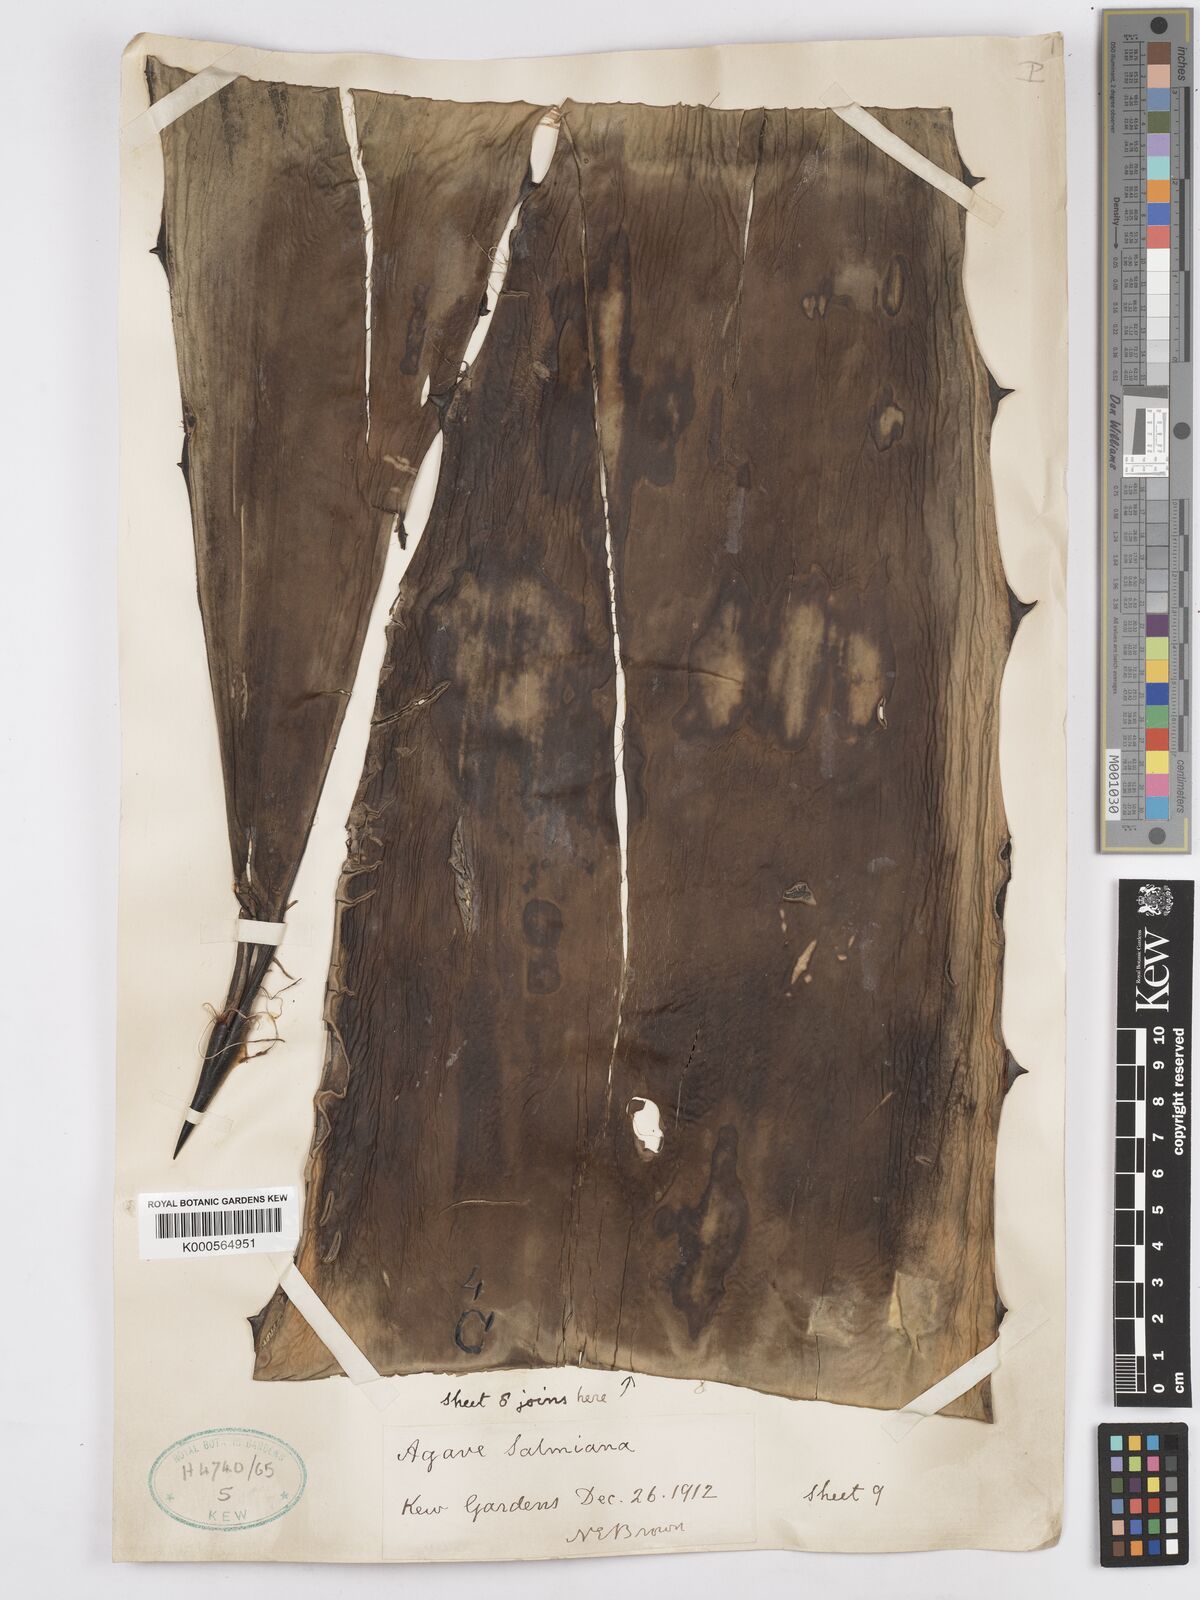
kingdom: Plantae
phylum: Tracheophyta
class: Liliopsida
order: Asparagales
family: Asparagaceae
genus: Agave
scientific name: Agave salmiana
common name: Pulque agave
